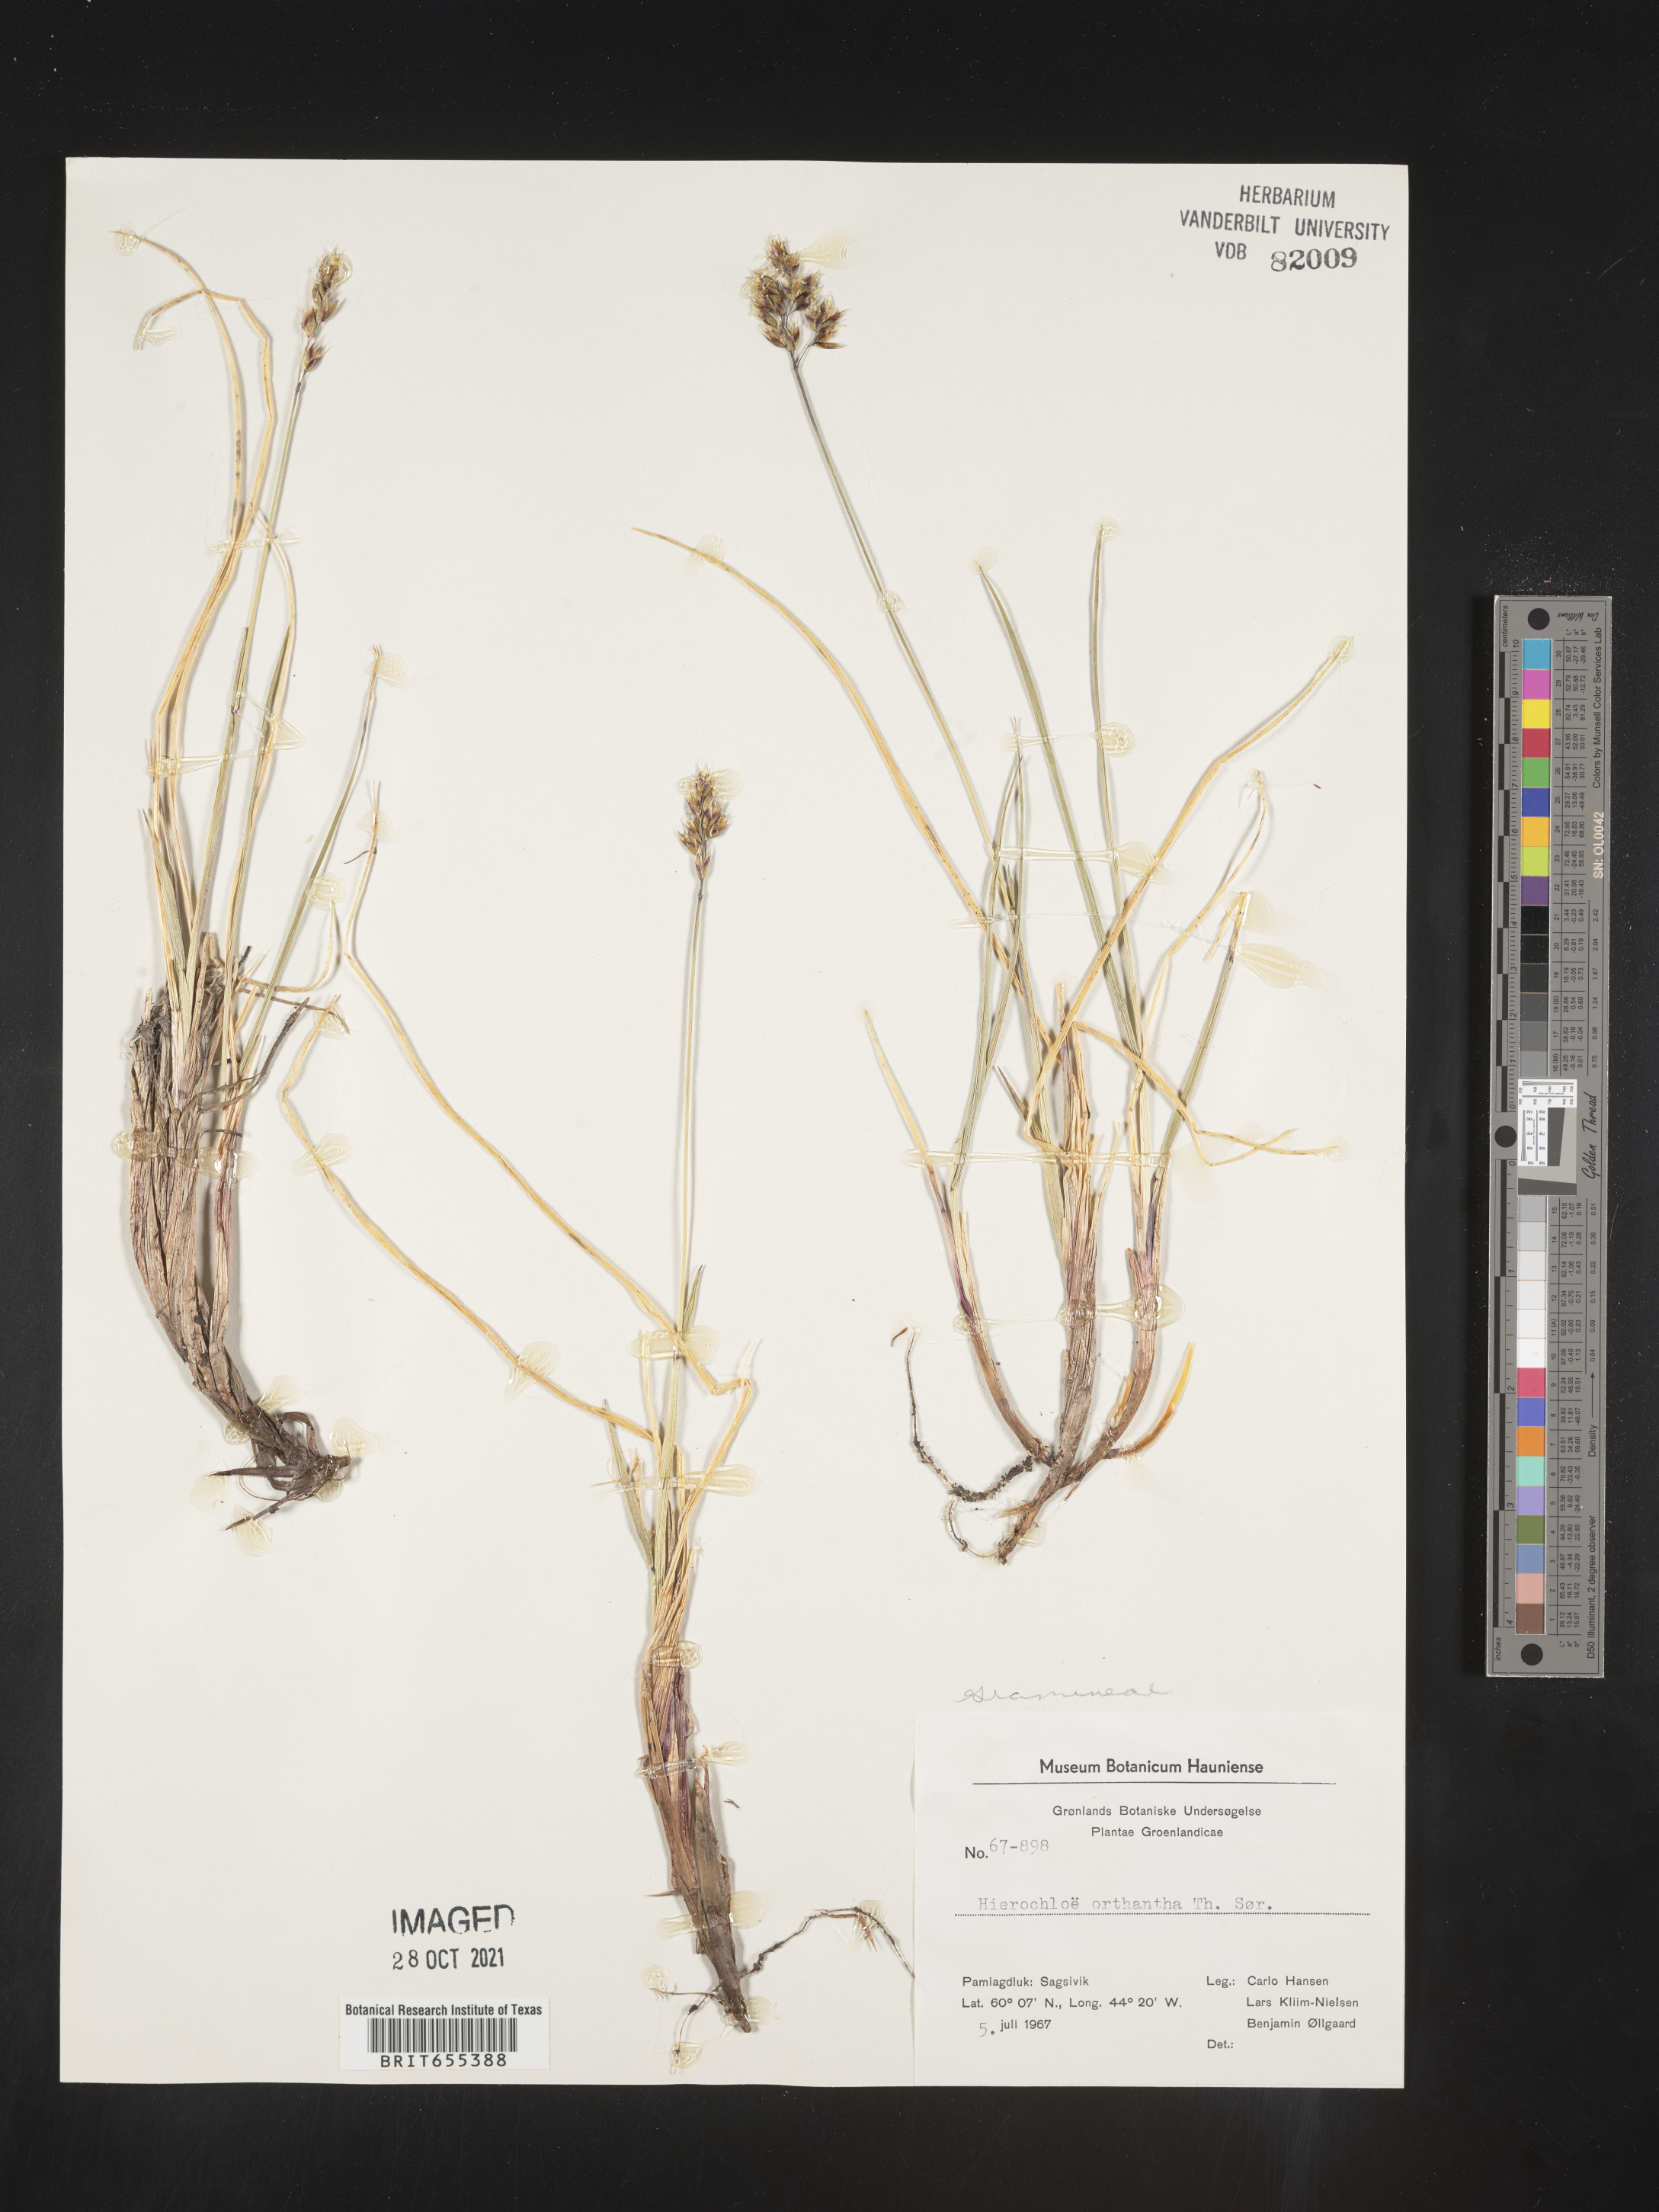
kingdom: Plantae
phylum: Tracheophyta
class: Liliopsida
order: Poales
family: Poaceae
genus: Hierochloe
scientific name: Hierochloe
